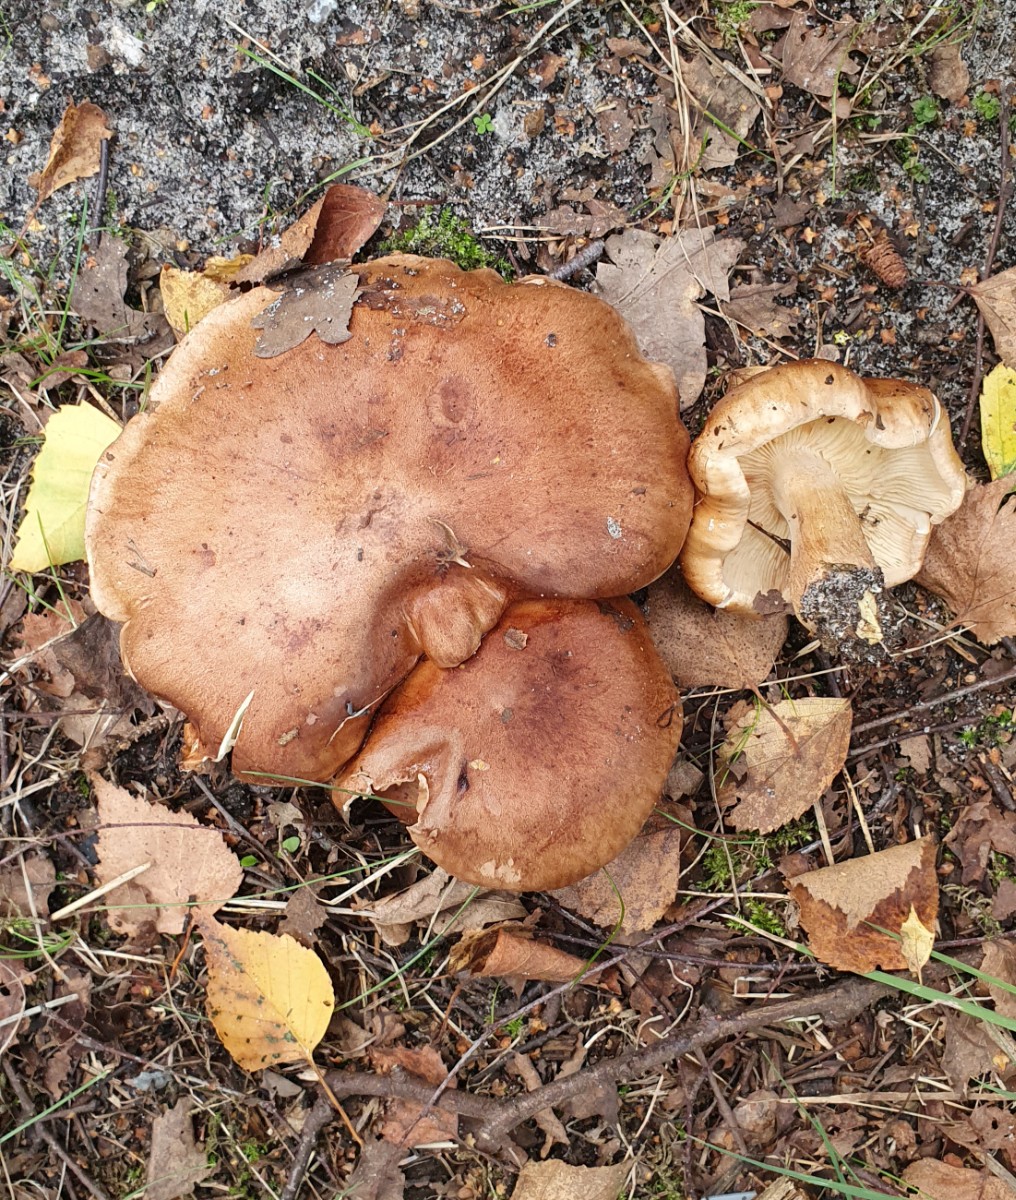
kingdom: Fungi
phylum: Basidiomycota
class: Agaricomycetes
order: Agaricales
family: Tricholomataceae
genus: Tricholoma
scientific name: Tricholoma stans
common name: stolt ridderhat
